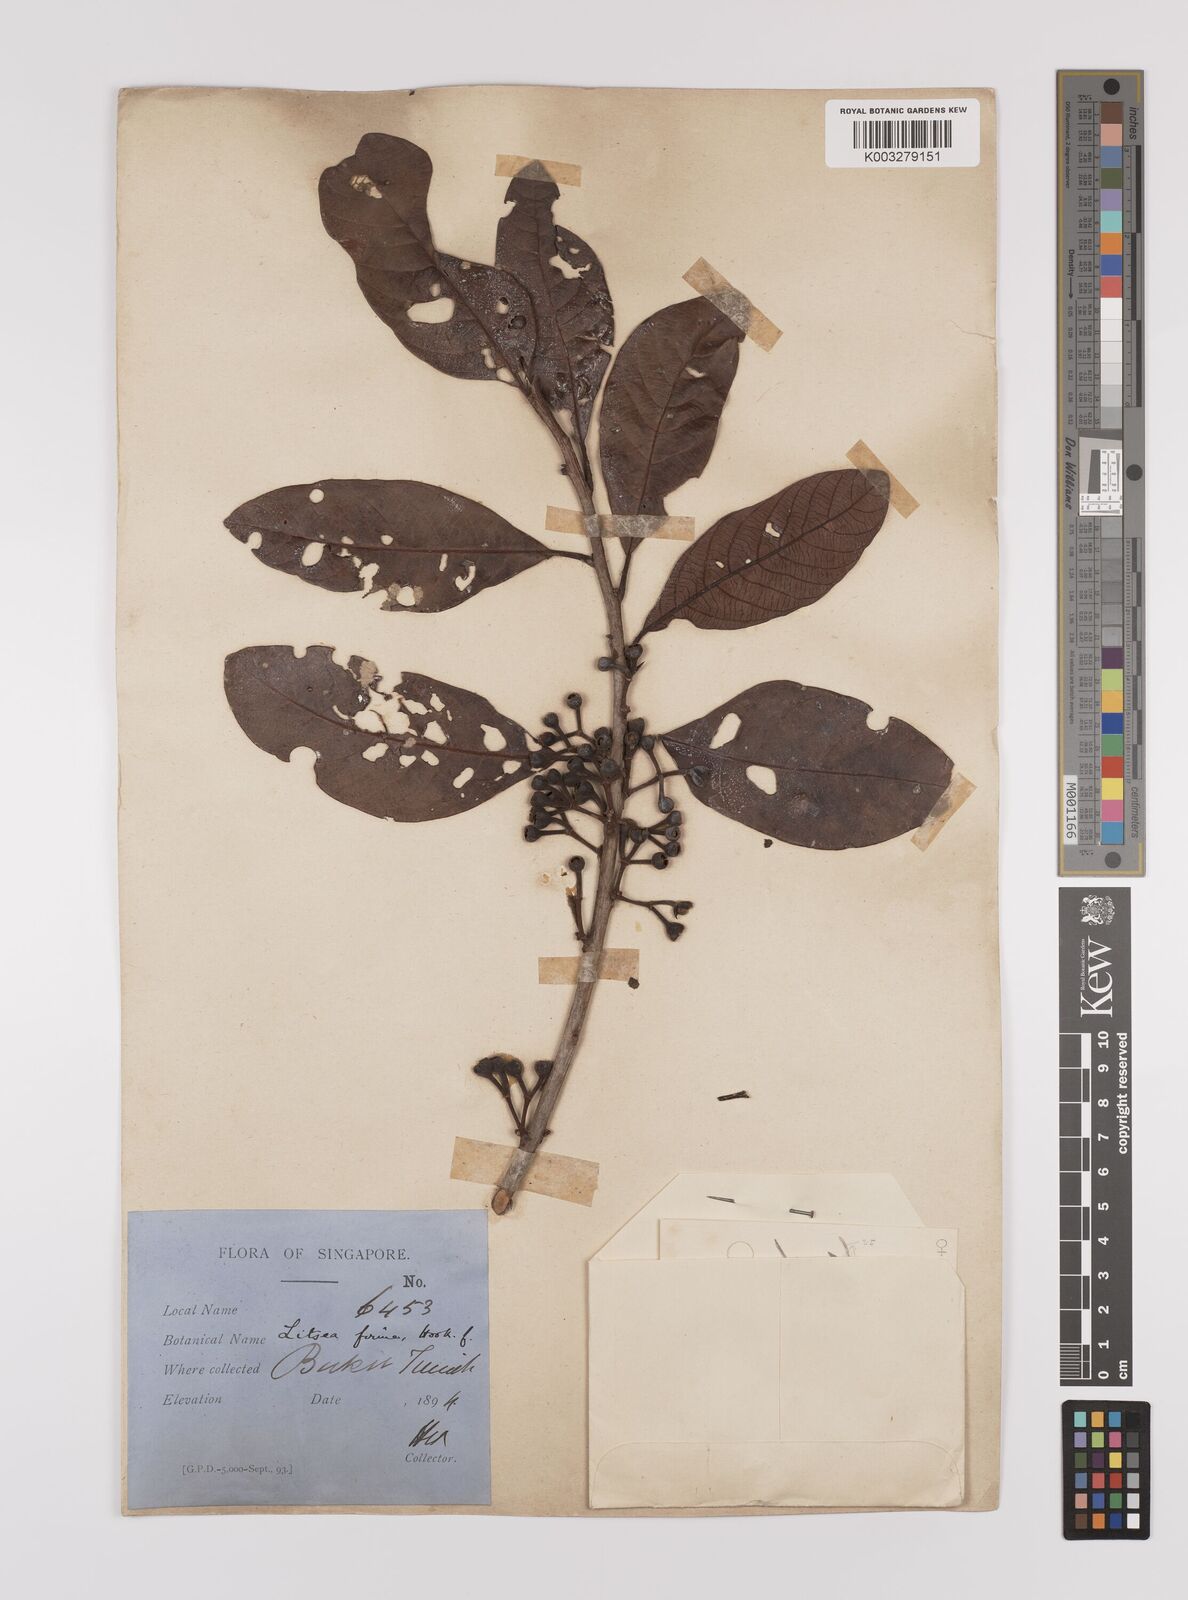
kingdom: Plantae
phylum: Tracheophyta
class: Magnoliopsida
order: Laurales
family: Lauraceae
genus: Litsea
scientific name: Litsea firma
